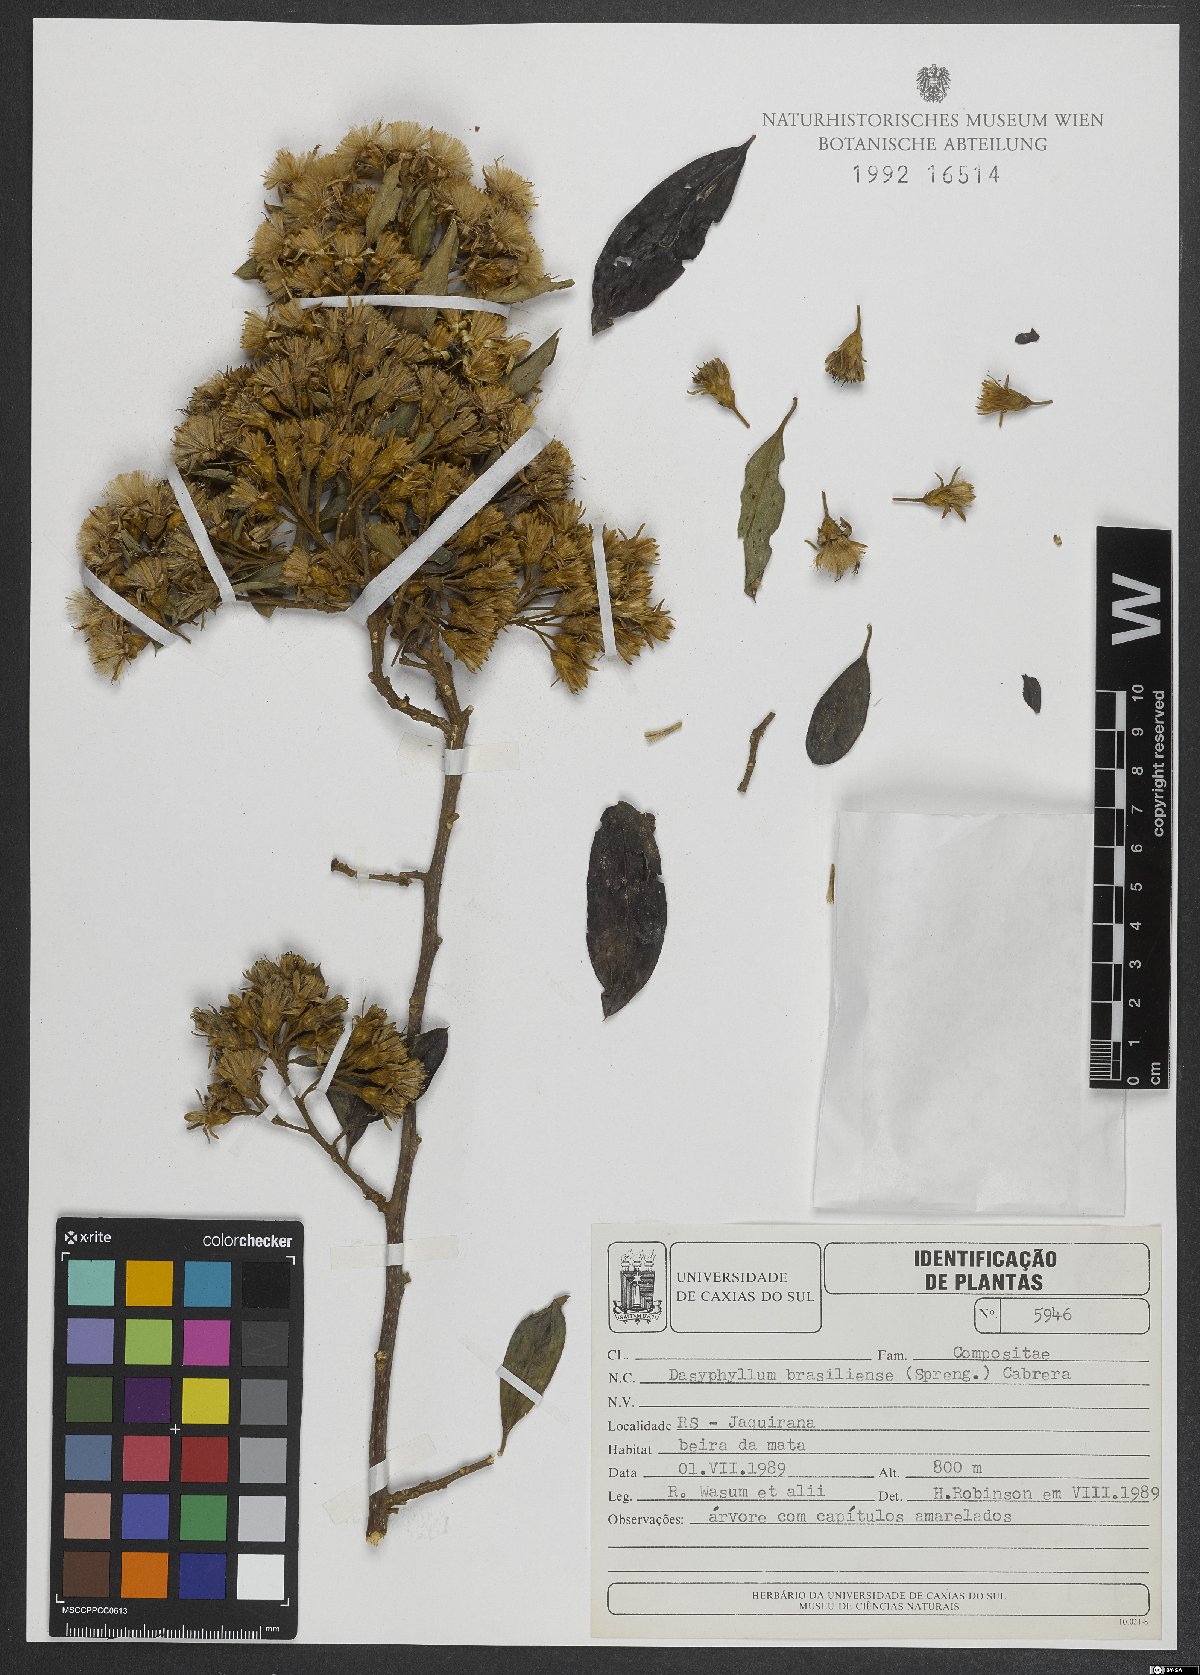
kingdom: Plantae
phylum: Tracheophyta
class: Magnoliopsida
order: Asterales
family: Asteraceae
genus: Dasyphyllum
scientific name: Dasyphyllum brasiliense
